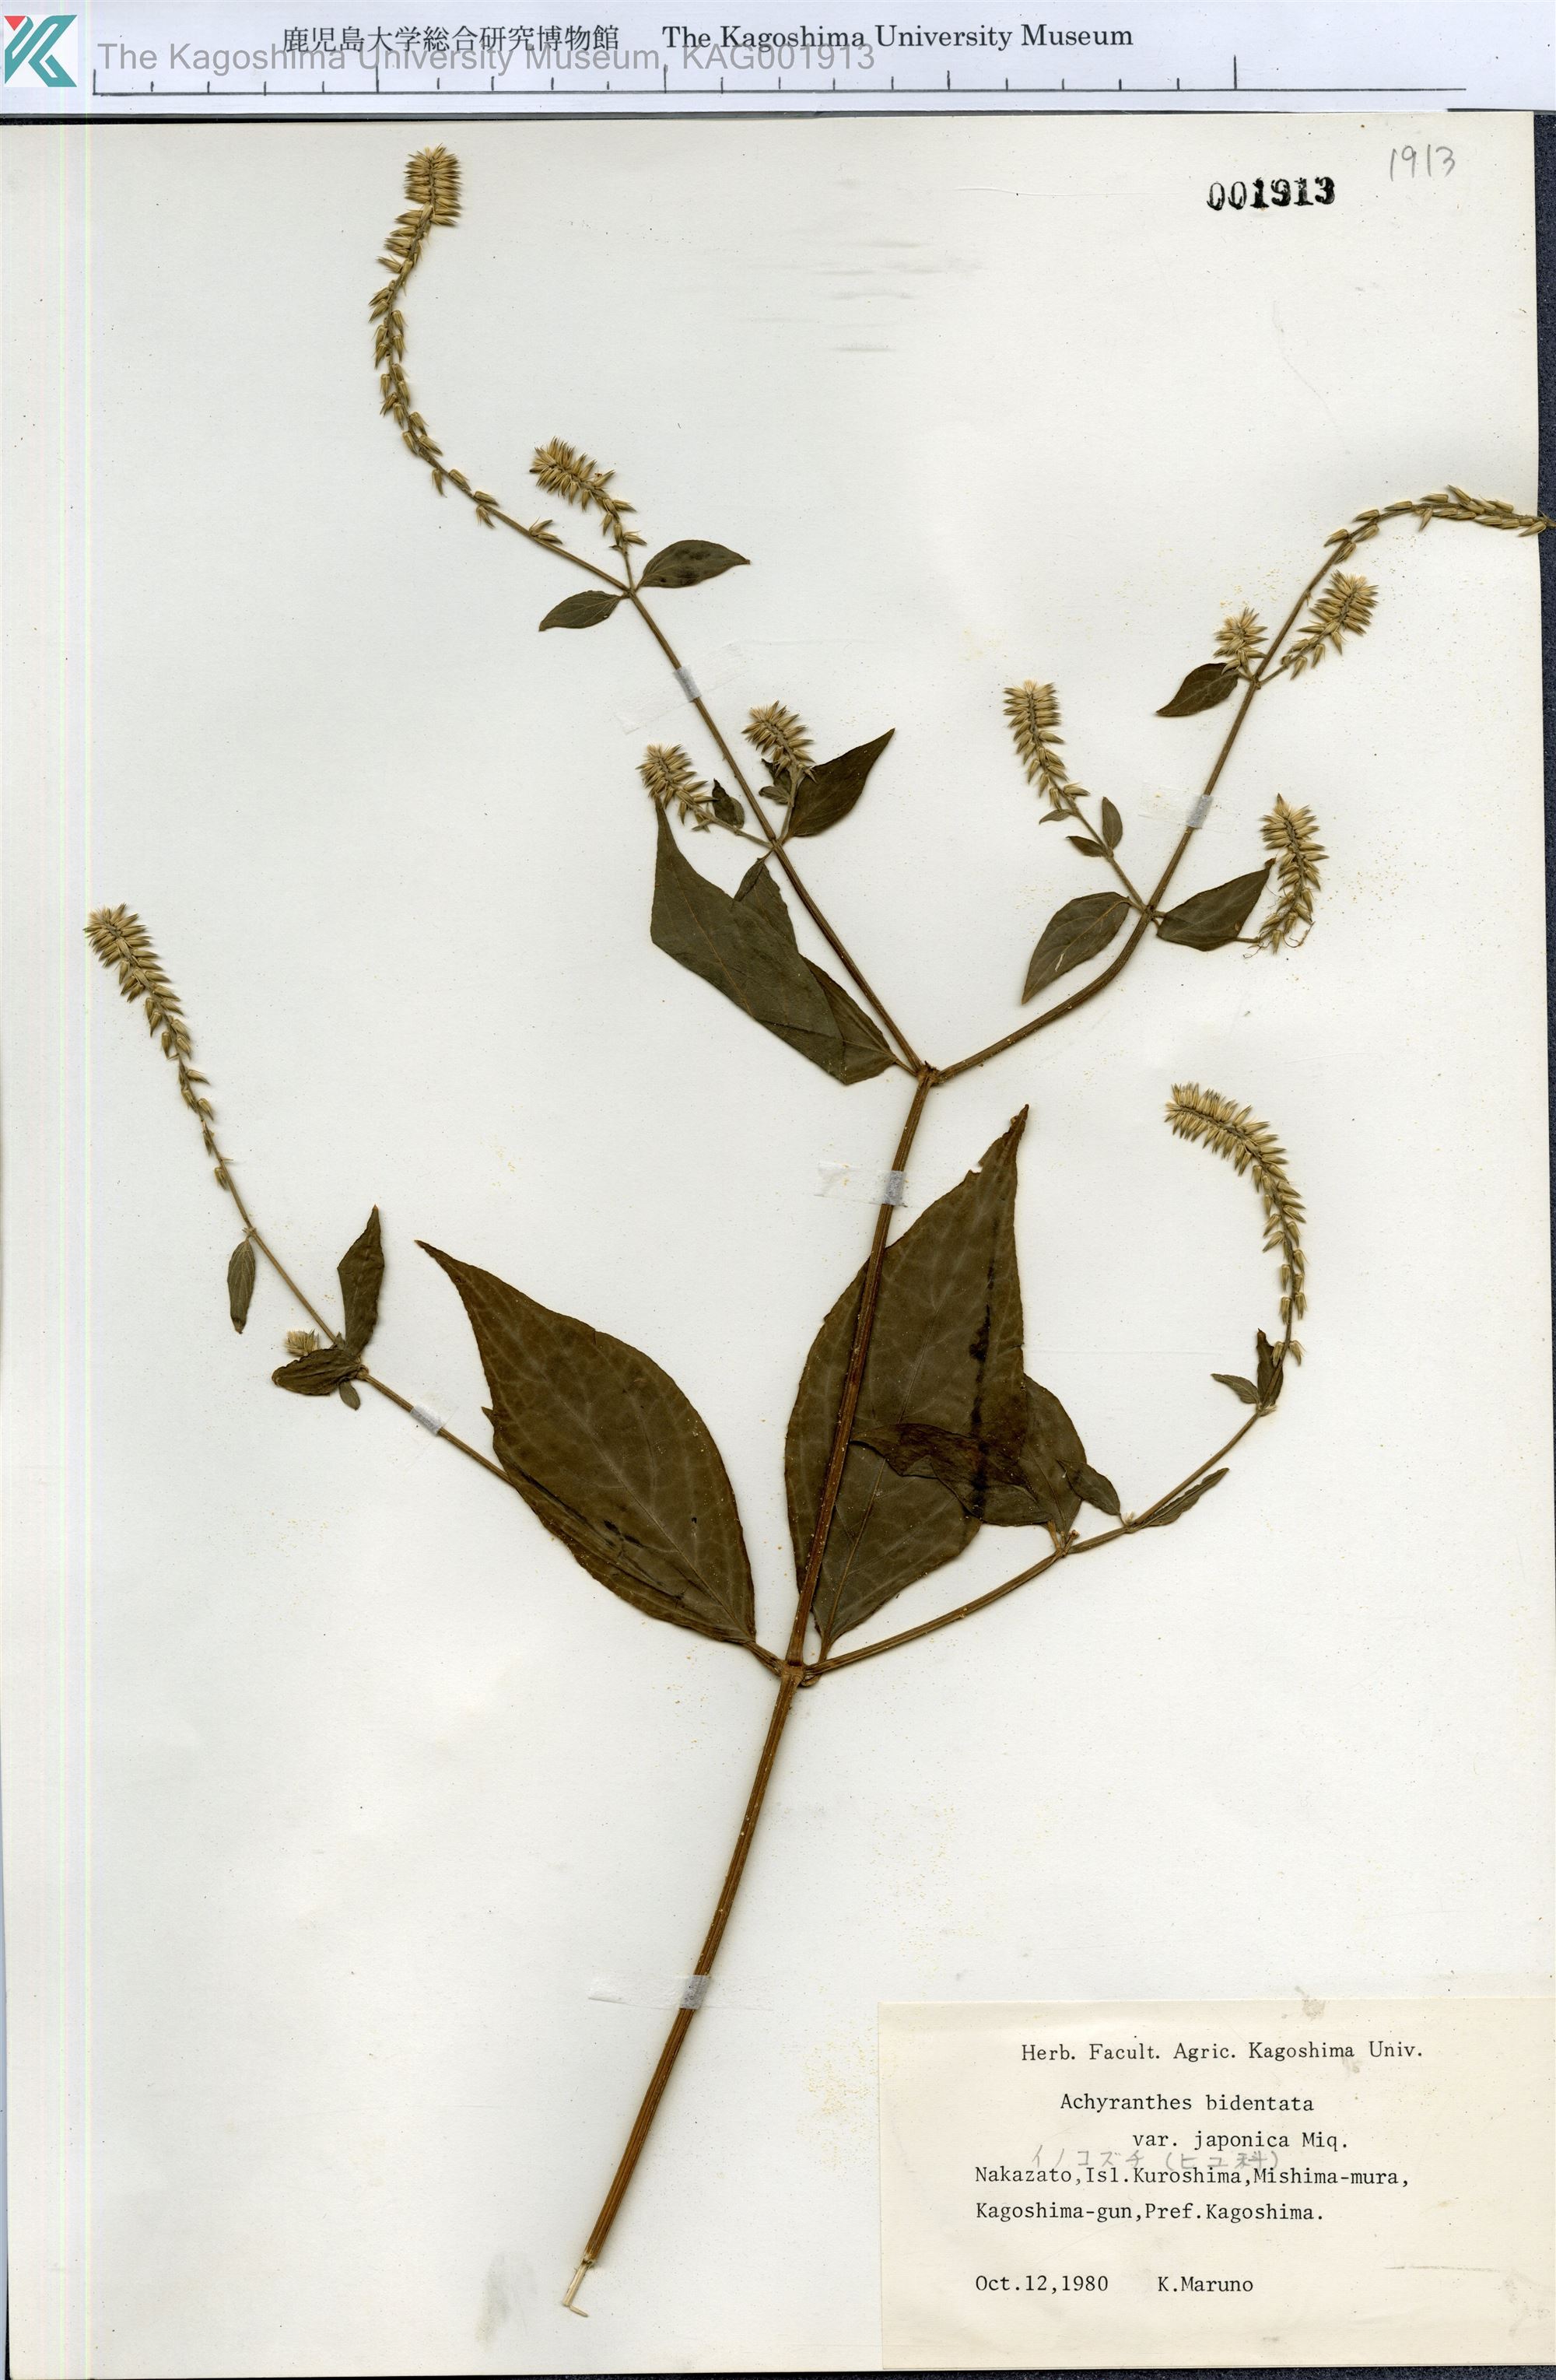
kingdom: Plantae
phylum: Tracheophyta
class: Magnoliopsida
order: Caryophyllales
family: Amaranthaceae
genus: Achyranthes
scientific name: Achyranthes bidentata
